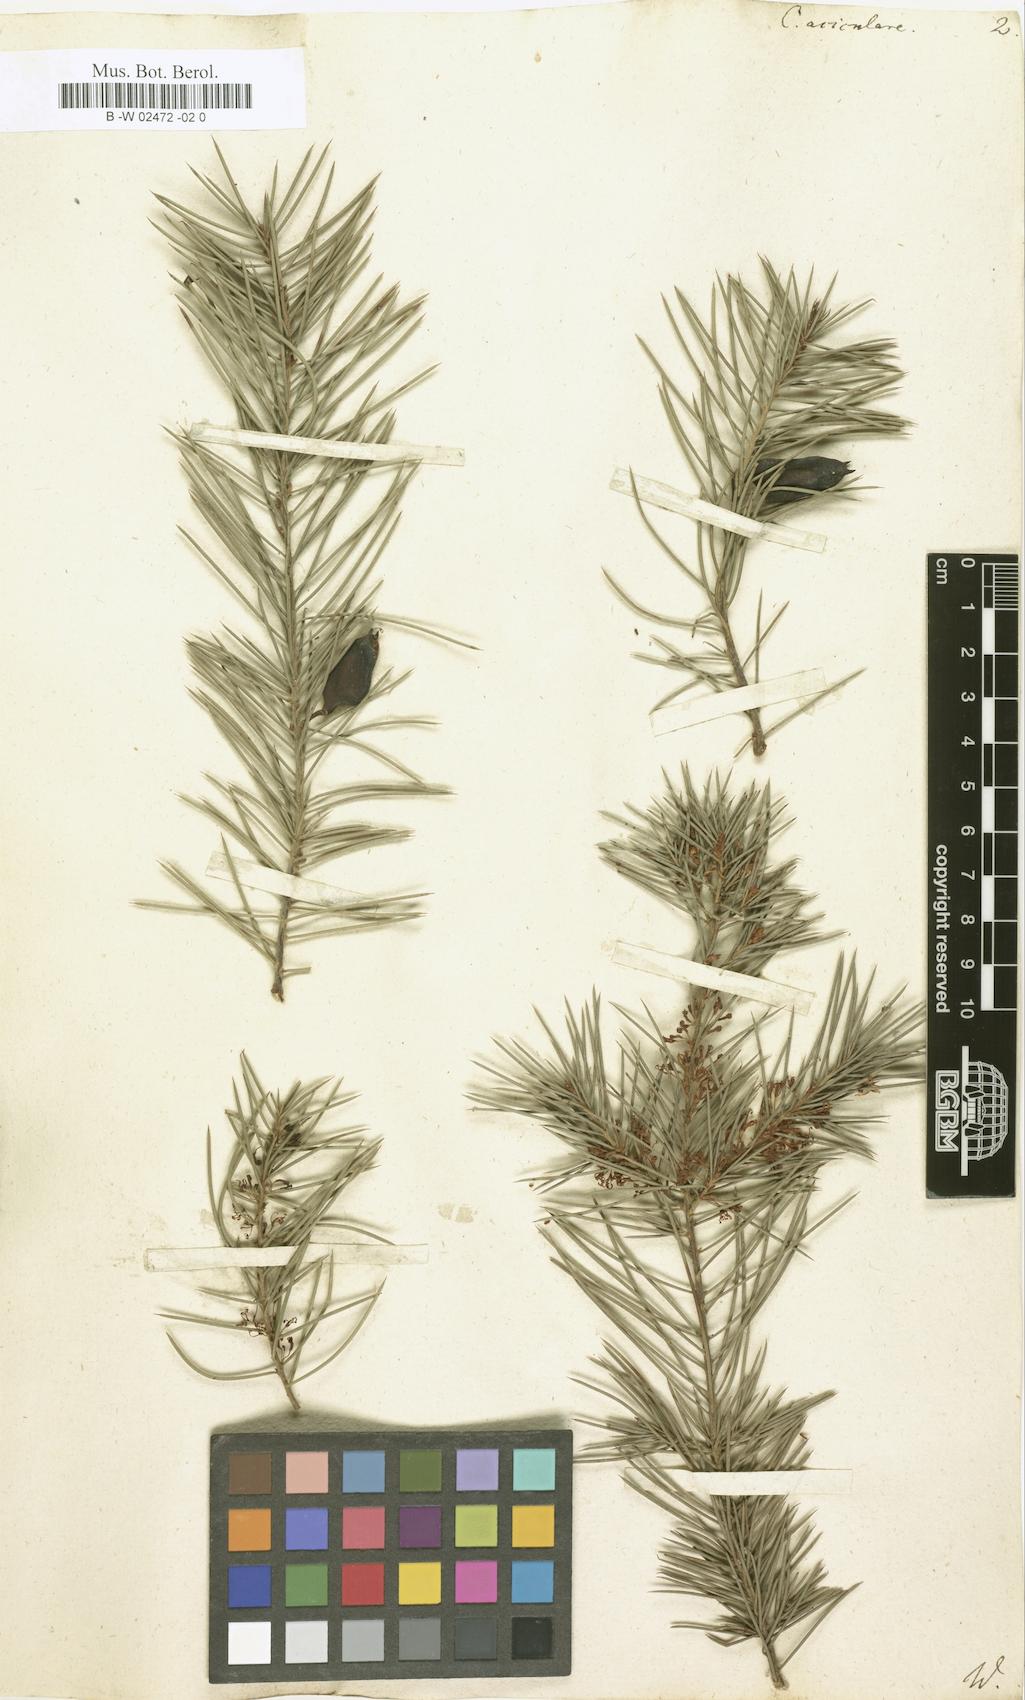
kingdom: Plantae
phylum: Tracheophyta
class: Magnoliopsida
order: Proteales
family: Proteaceae
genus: Hakea
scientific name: Hakea sericea
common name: Needle bush
